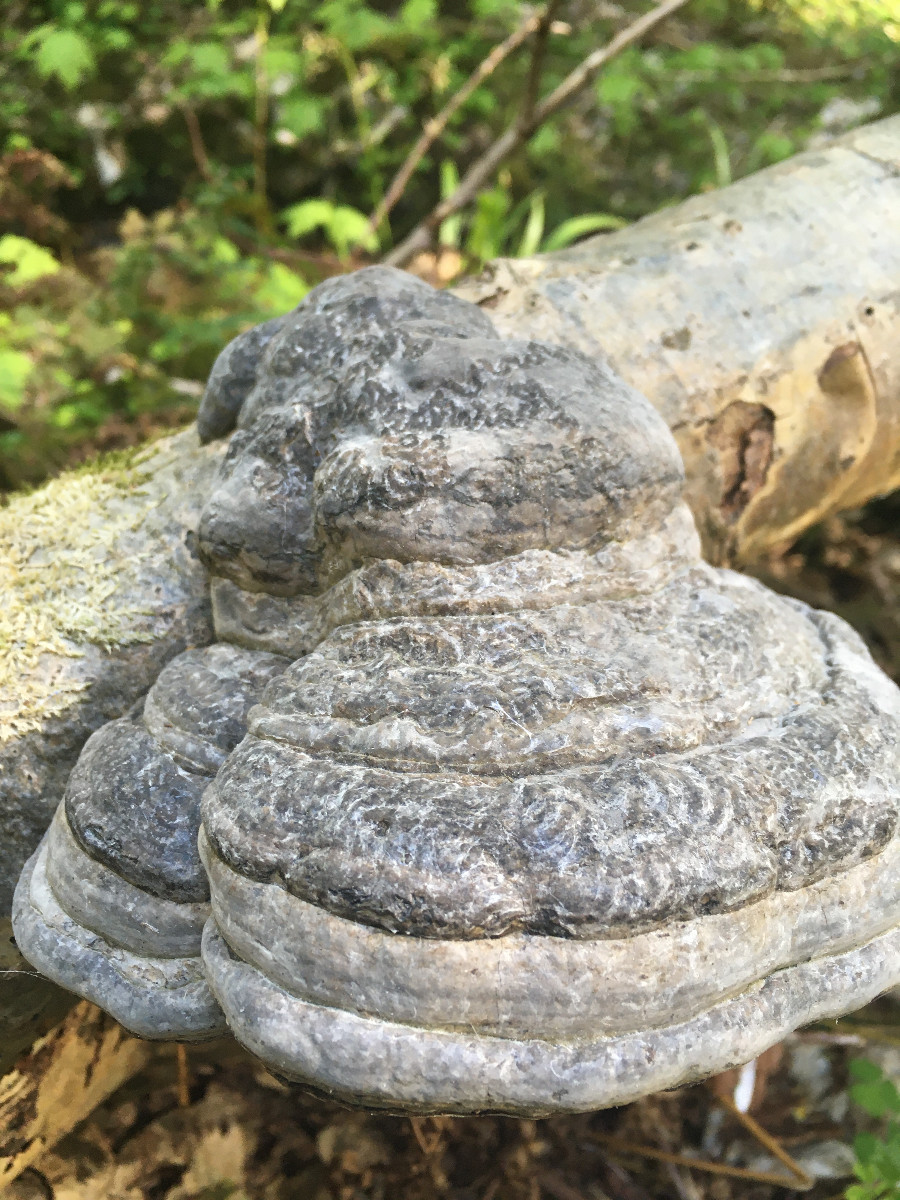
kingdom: Fungi
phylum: Basidiomycota
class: Agaricomycetes
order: Polyporales
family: Polyporaceae
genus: Fomes
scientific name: Fomes fomentarius
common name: tøndersvamp
